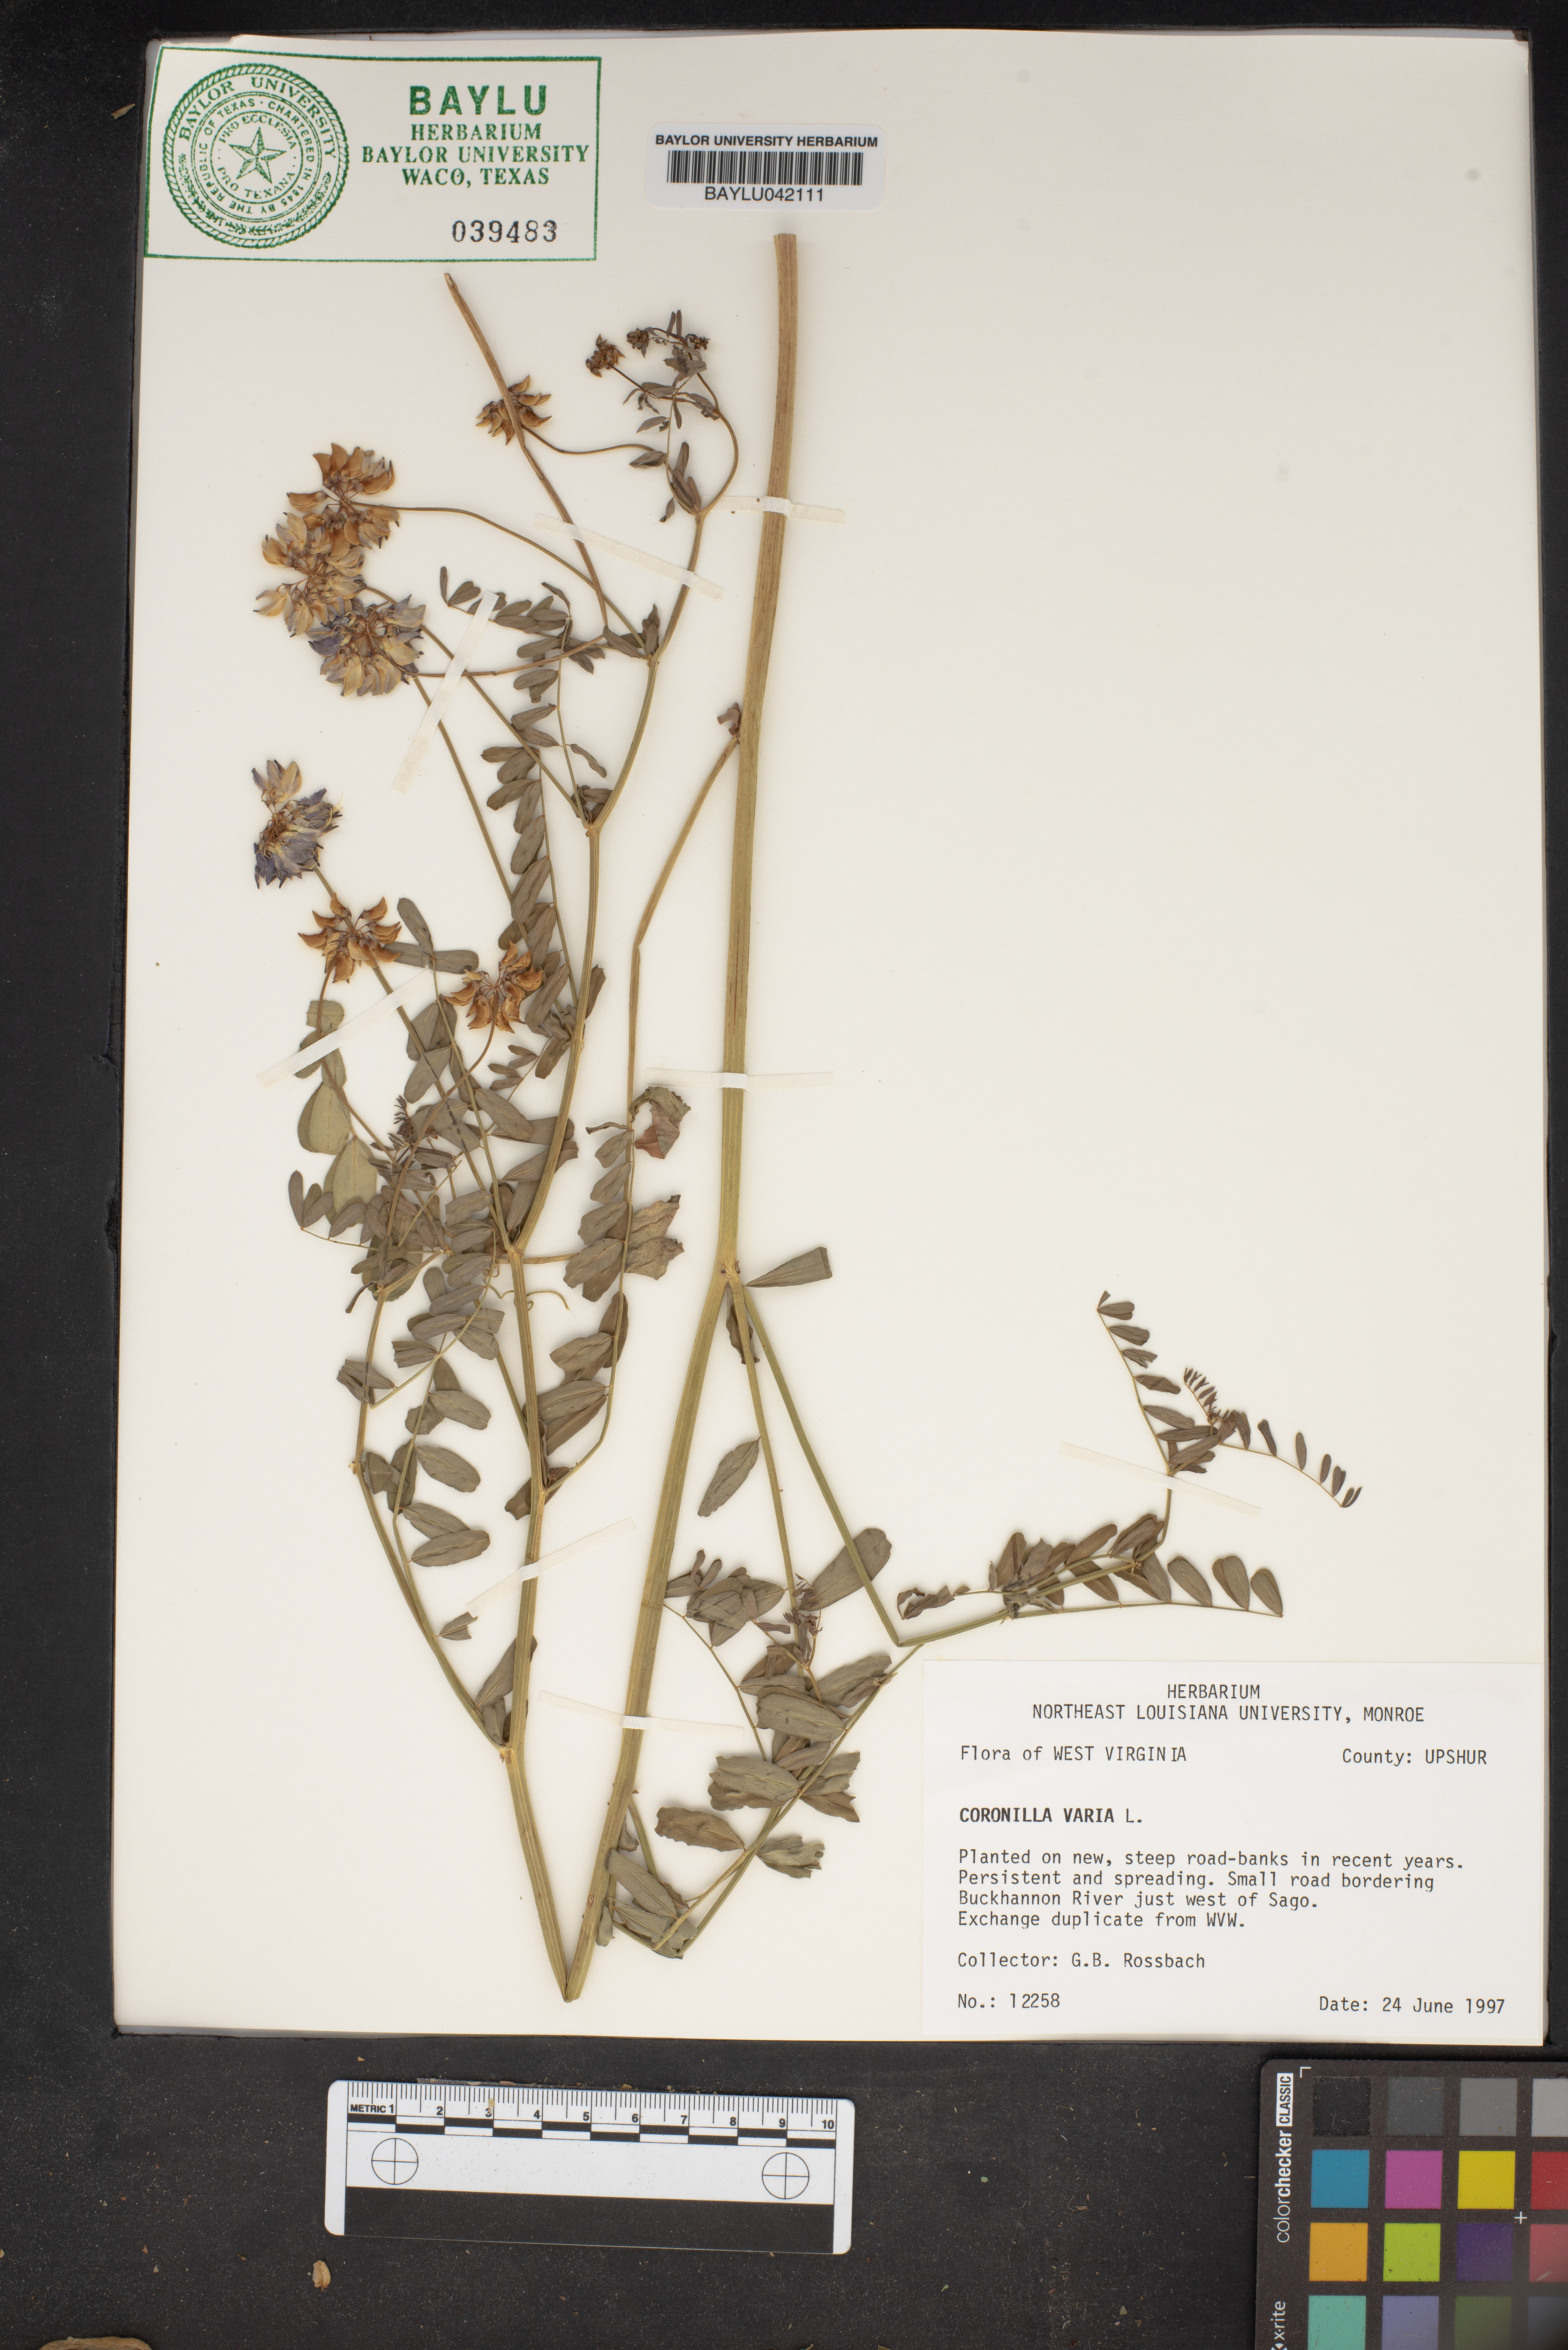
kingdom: Plantae
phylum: Tracheophyta
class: Magnoliopsida
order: Fabales
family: Fabaceae
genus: Coronilla
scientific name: Coronilla varia
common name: Crownvetch
